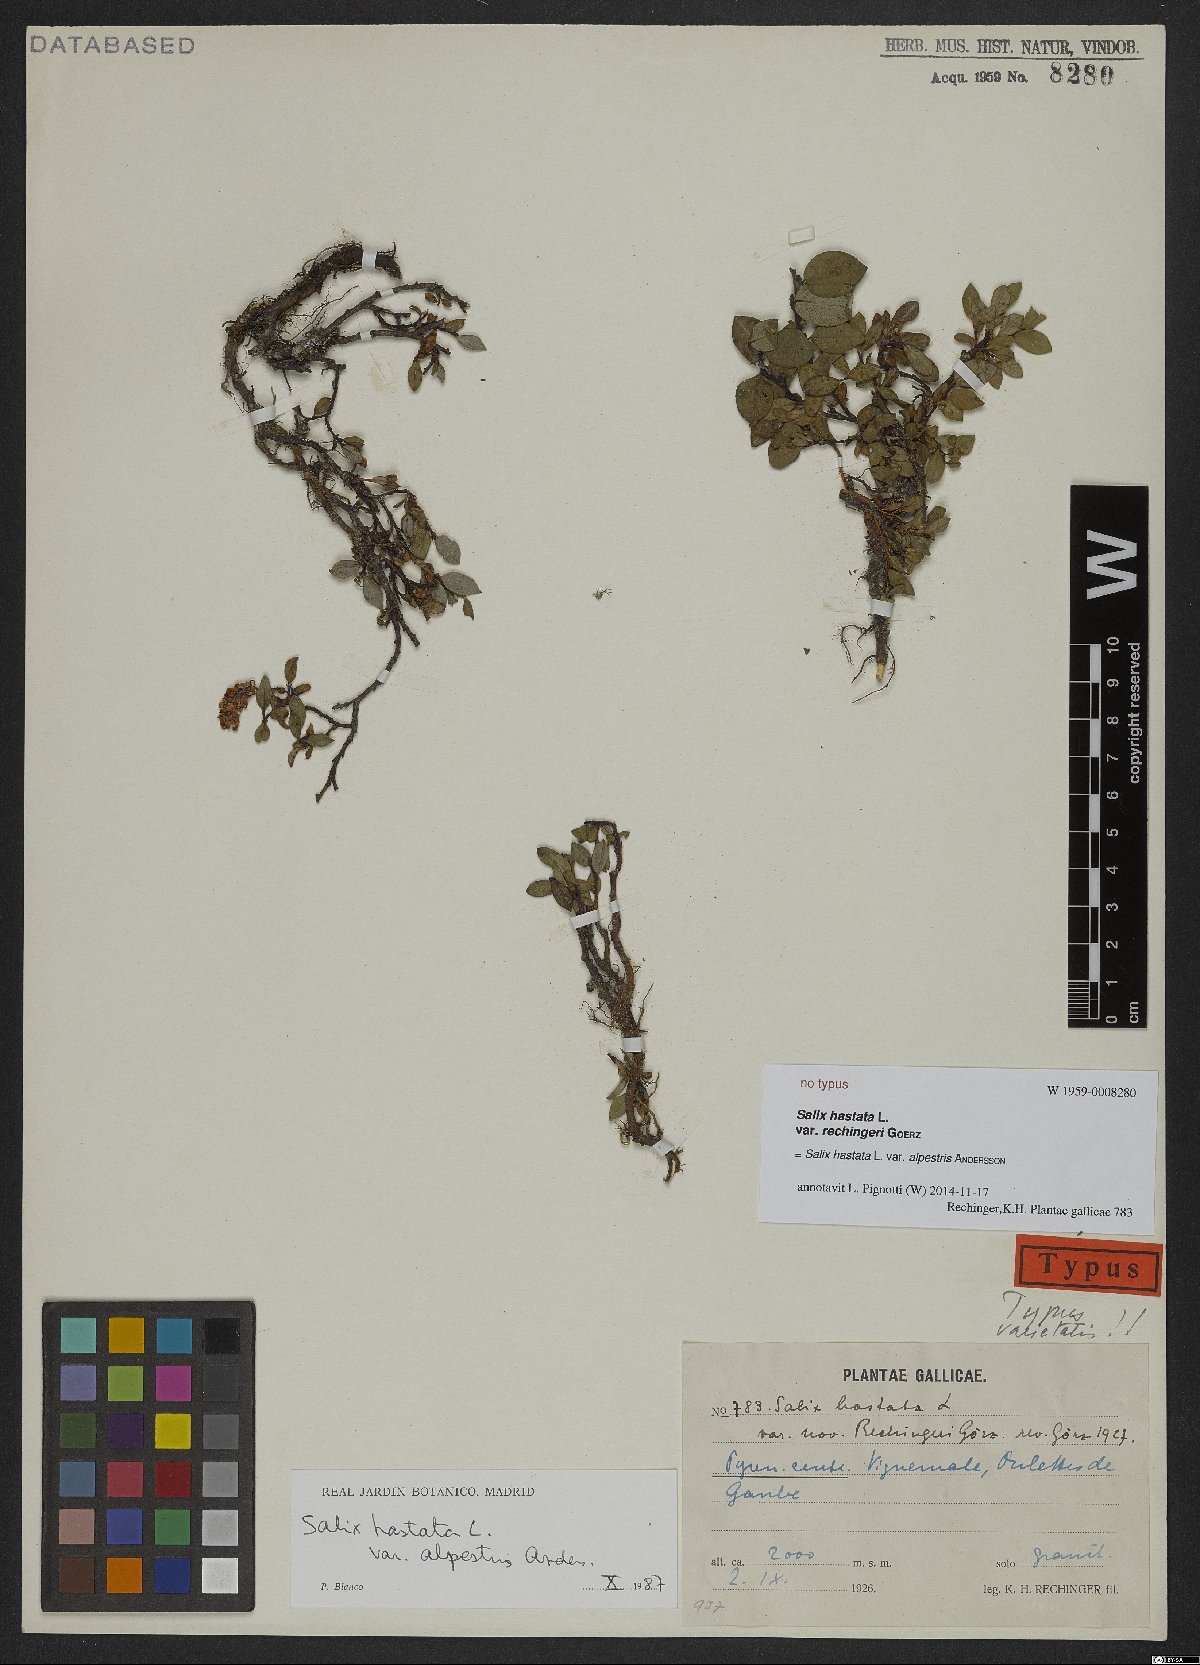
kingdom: Plantae
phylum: Tracheophyta
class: Magnoliopsida
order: Malpighiales
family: Salicaceae
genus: Salix
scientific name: Salix hastata
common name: Halberd willow
